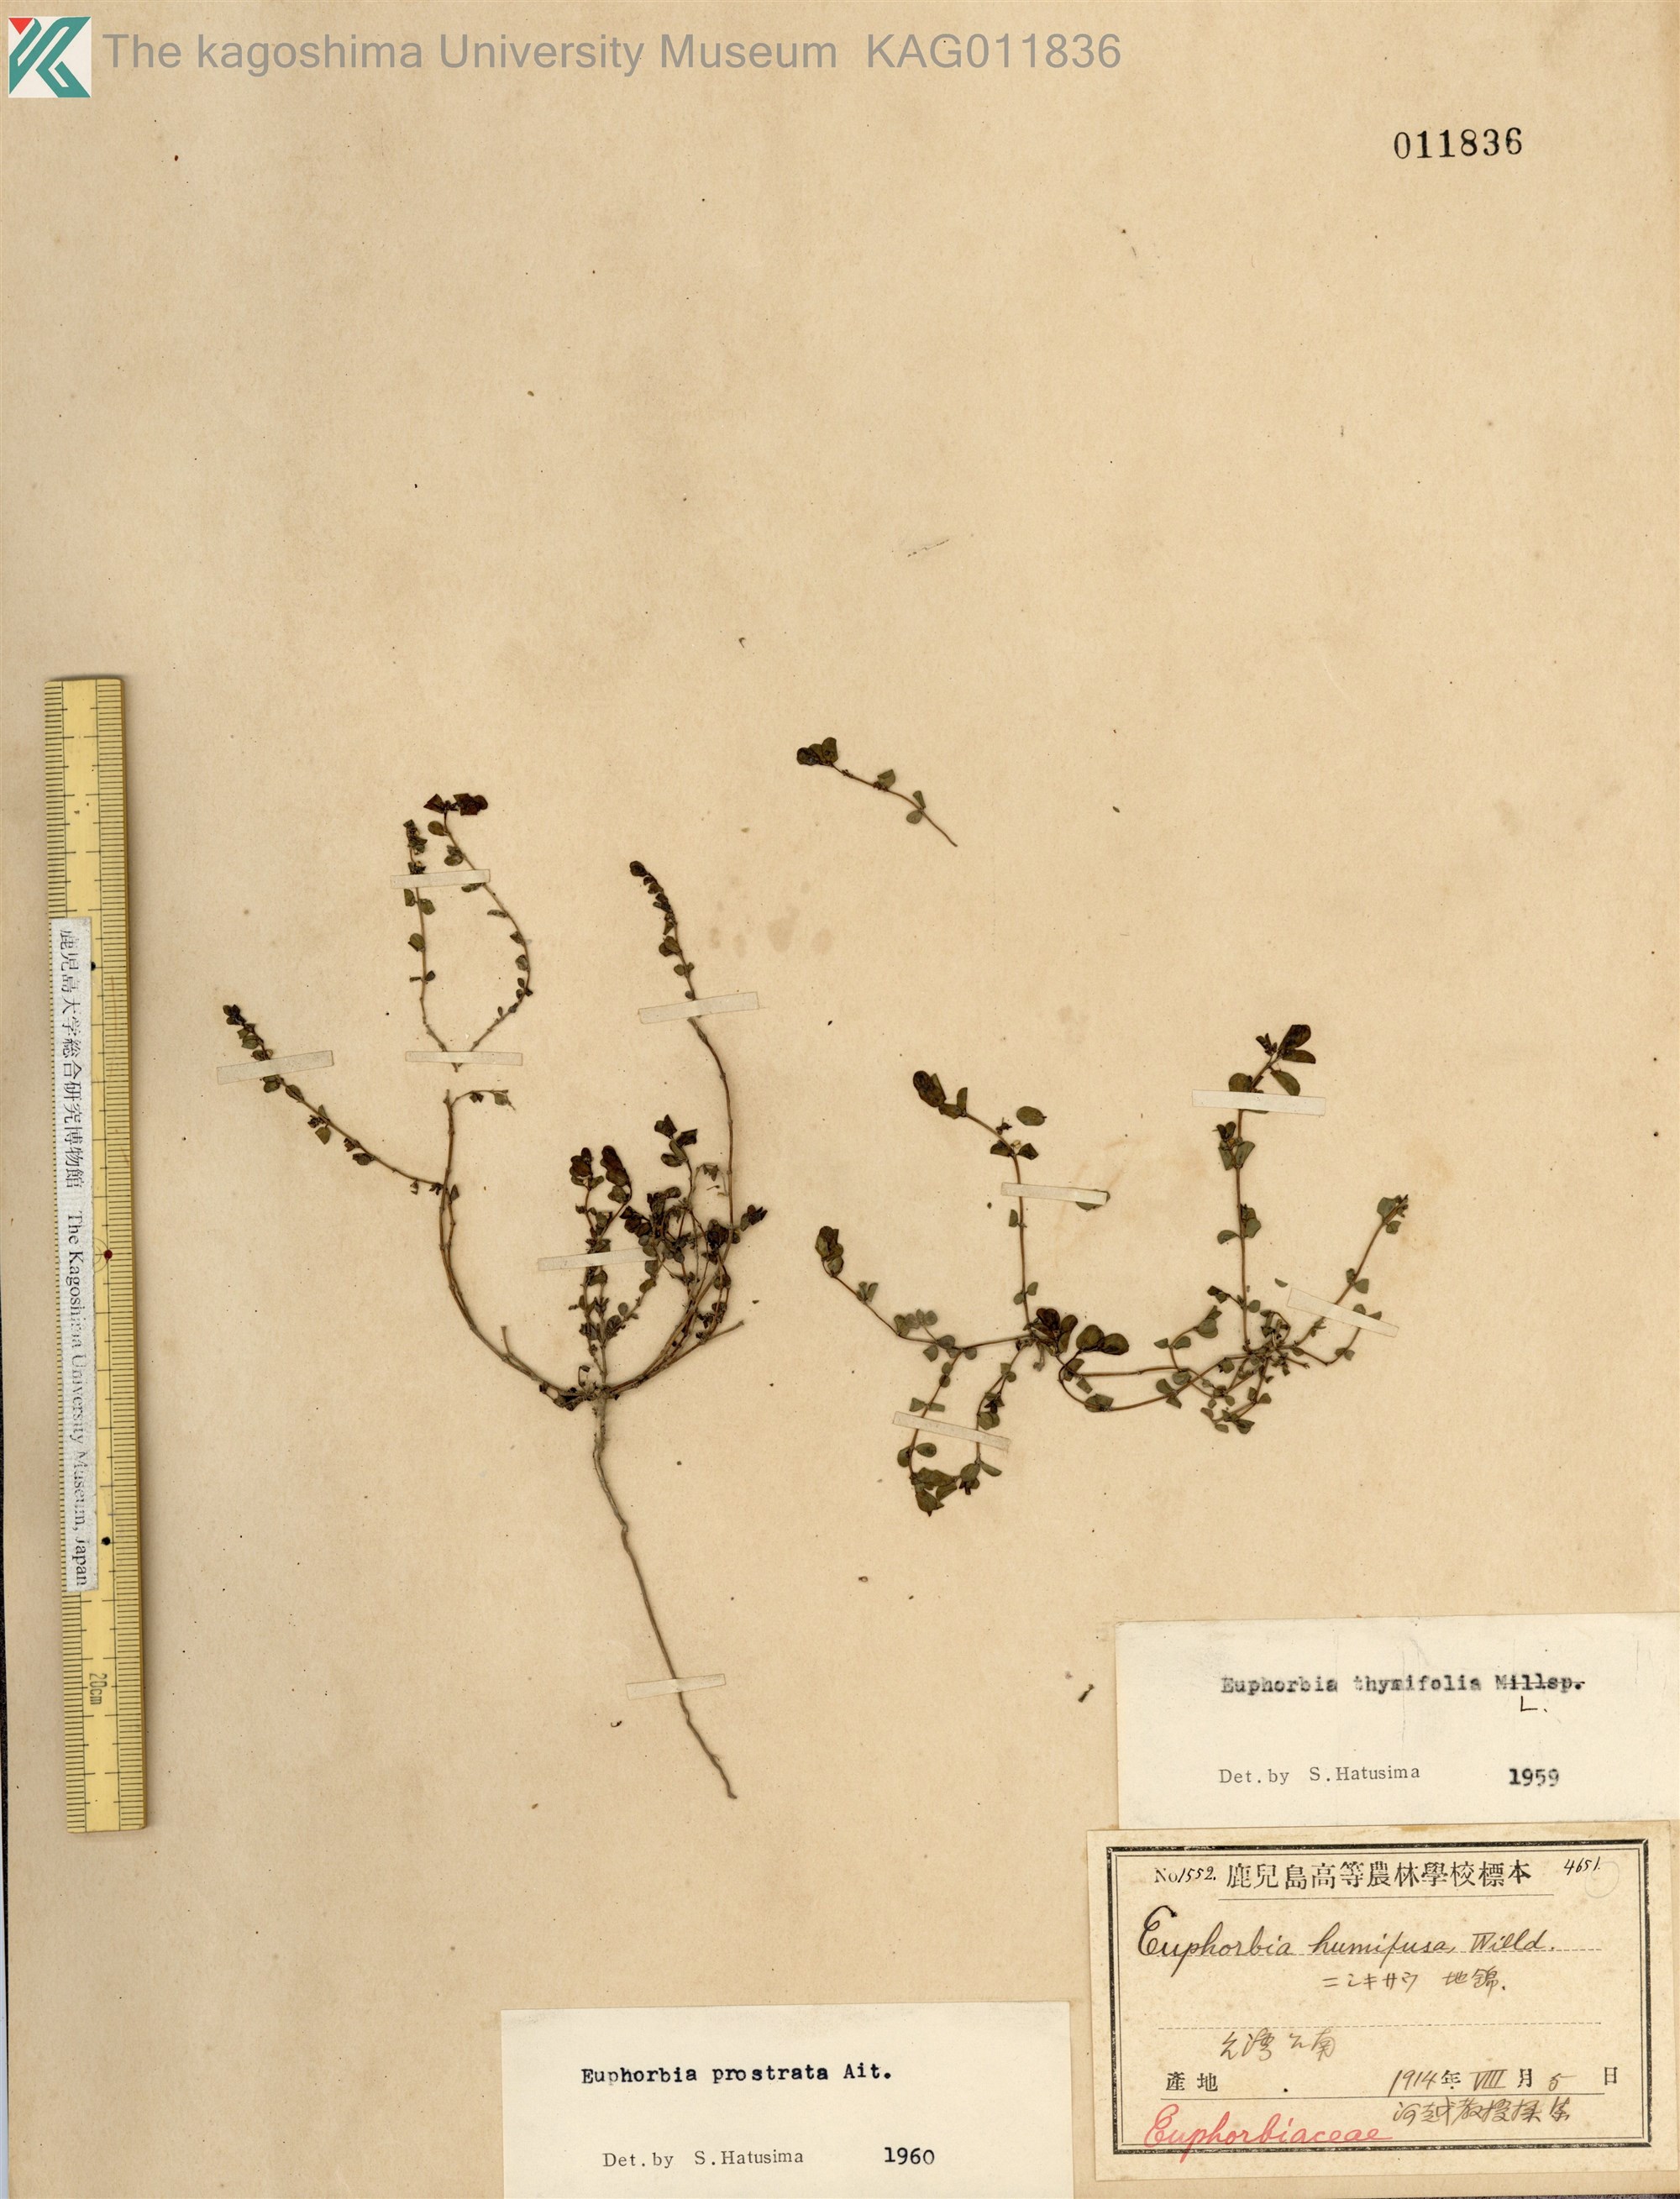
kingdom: Plantae
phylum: Tracheophyta
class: Magnoliopsida
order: Malpighiales
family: Euphorbiaceae
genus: Euphorbia
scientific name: Euphorbia prostrata
